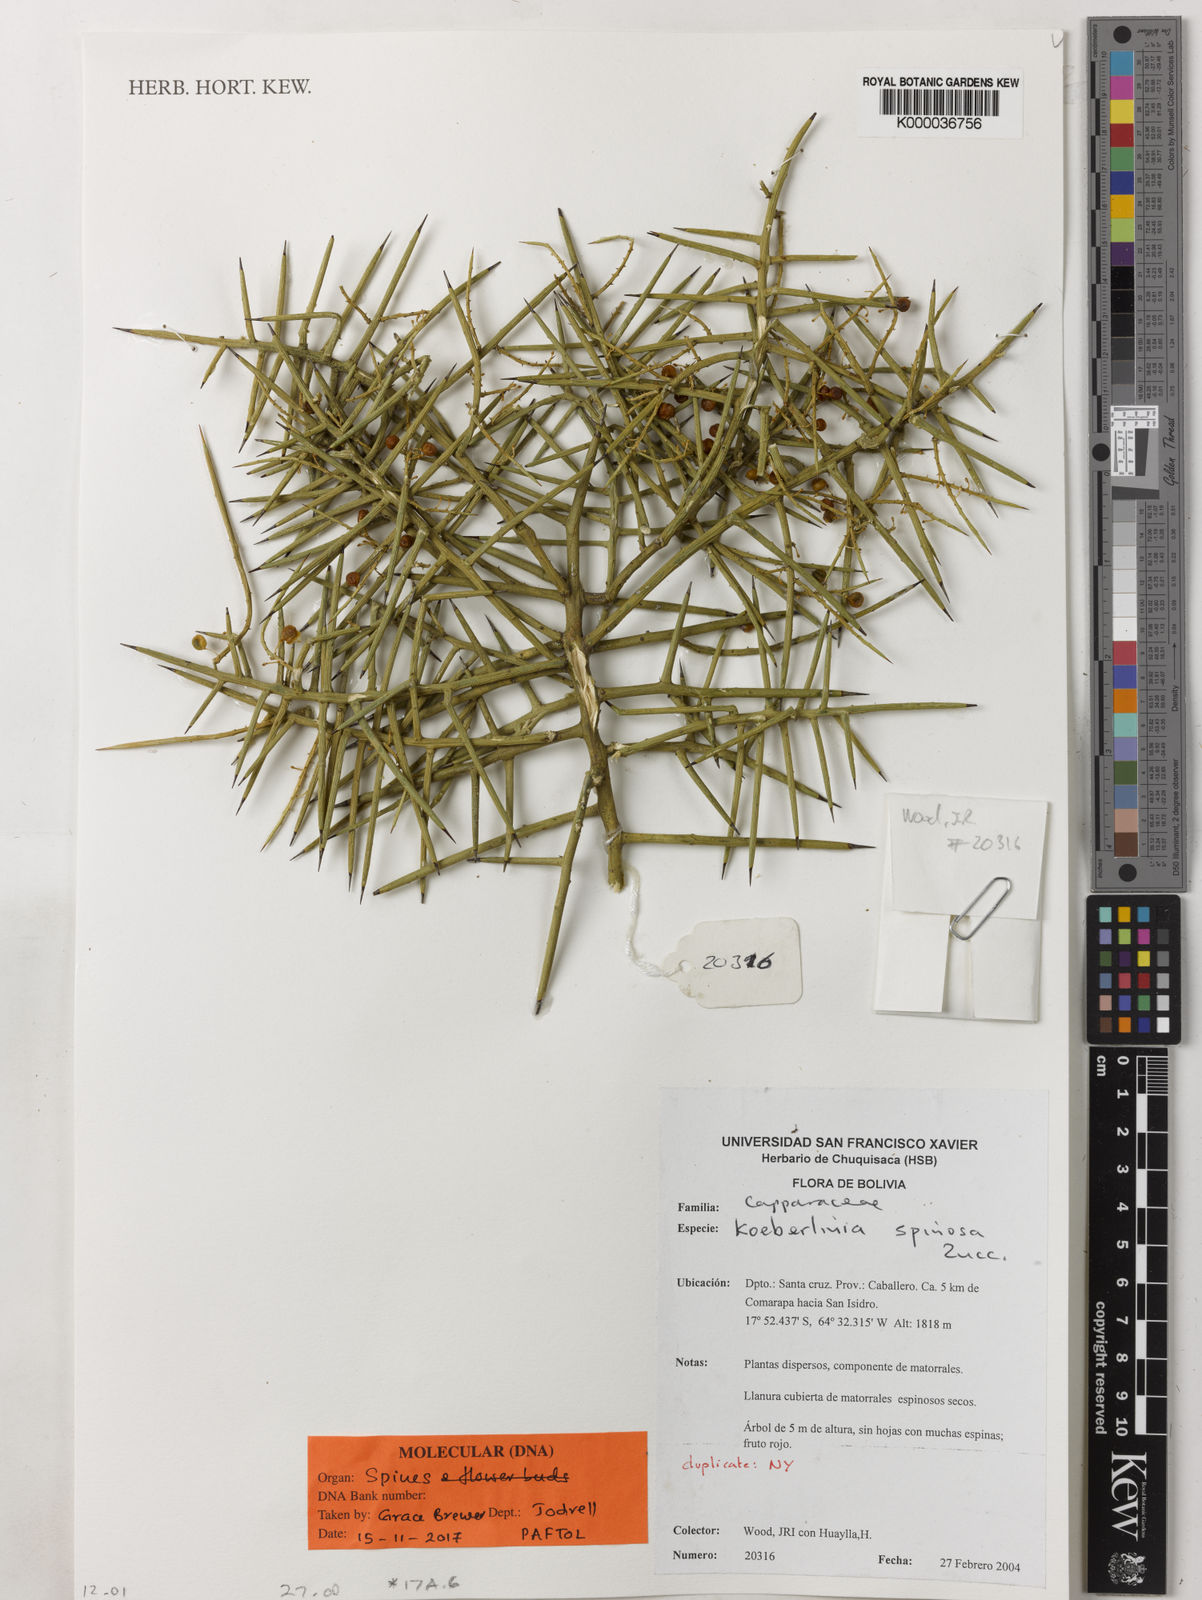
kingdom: Plantae
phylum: Tracheophyta
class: Magnoliopsida
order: Brassicales
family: Koeberliniaceae
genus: Koeberlinia
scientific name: Koeberlinia spinosa
